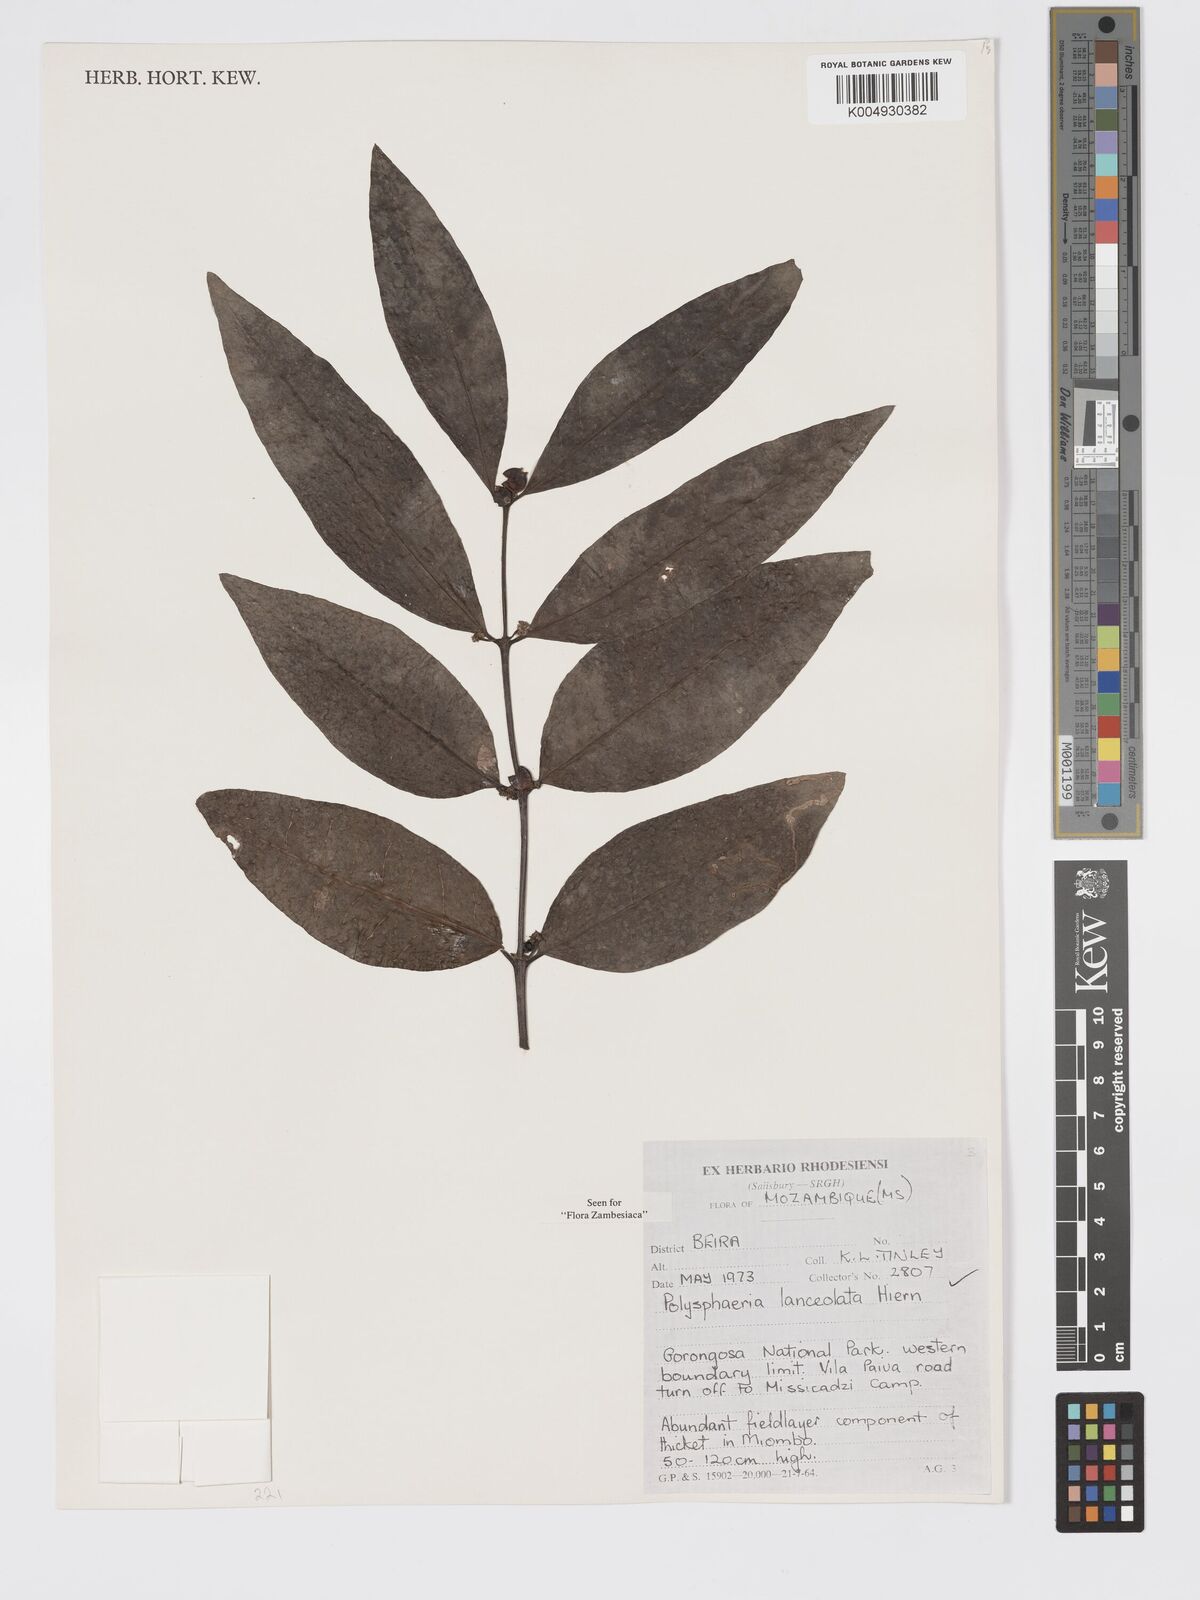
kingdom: Plantae
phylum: Tracheophyta
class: Magnoliopsida
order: Gentianales
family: Rubiaceae
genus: Polysphaeria
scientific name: Polysphaeria lanceolata
